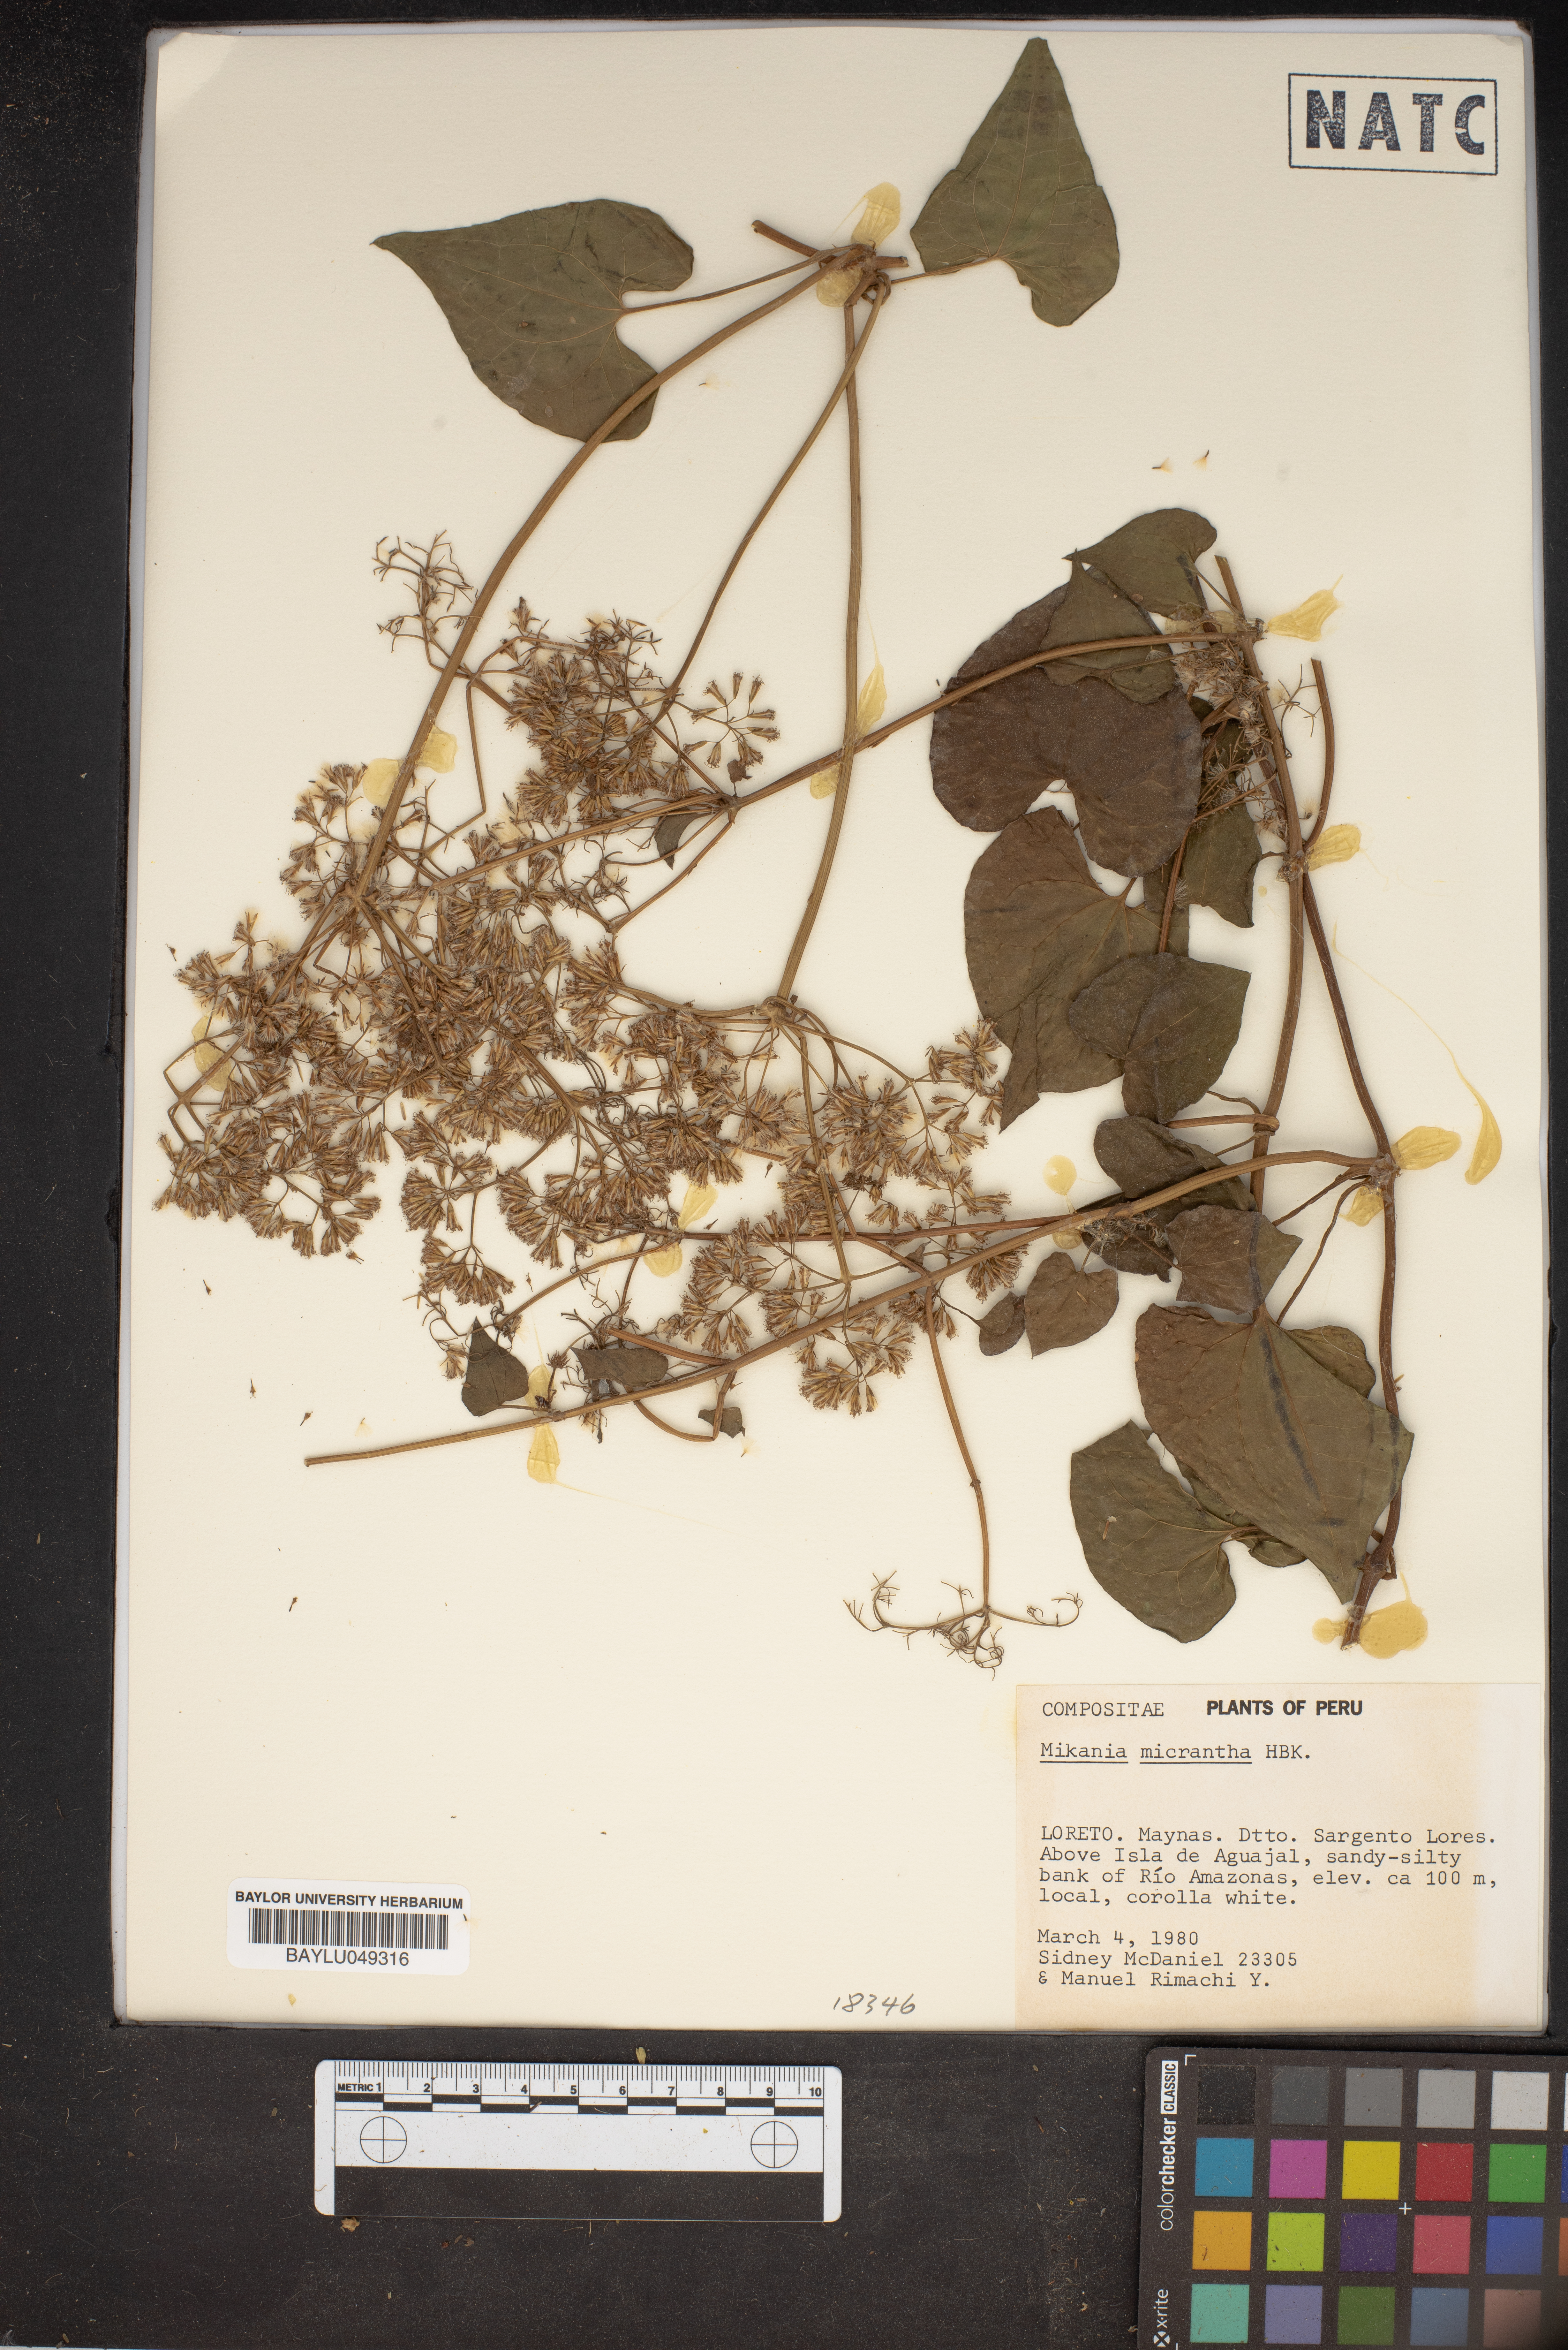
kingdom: Plantae
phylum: Tracheophyta
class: Magnoliopsida
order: Asterales
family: Asteraceae
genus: Mikania
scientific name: Mikania micrantha
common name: Mile-a-minute
